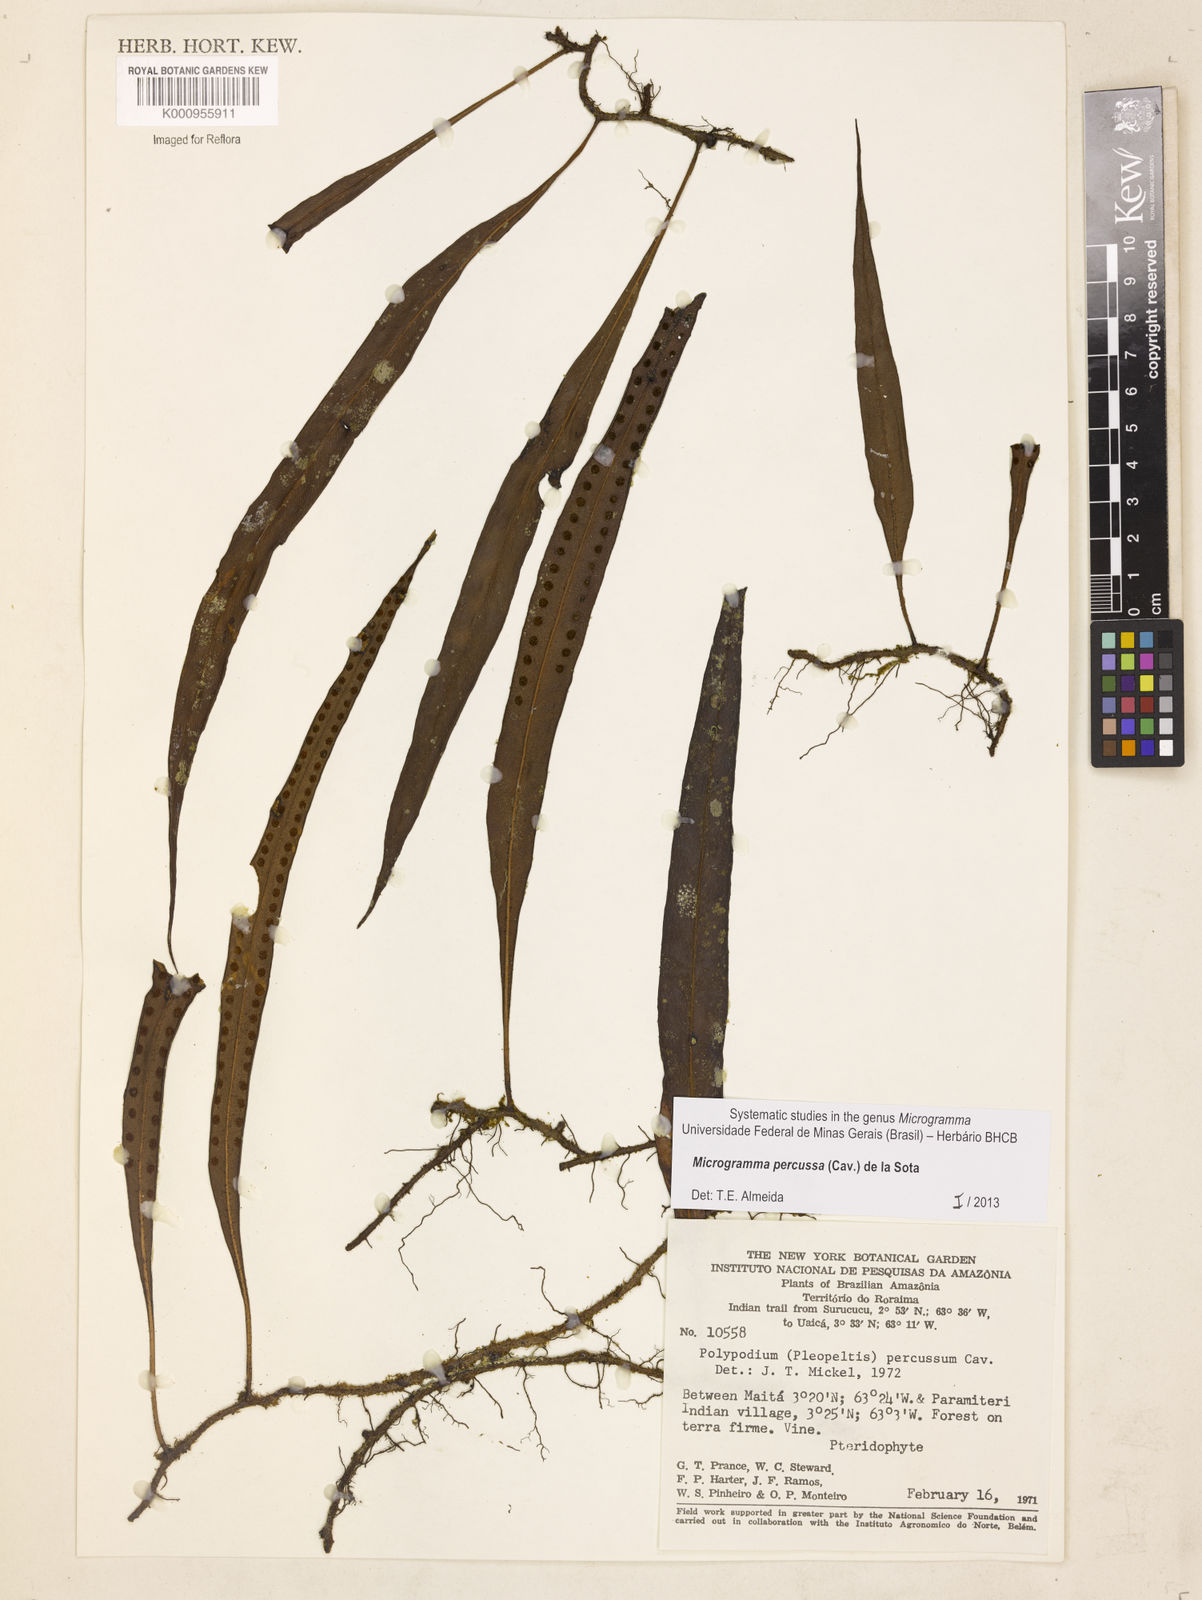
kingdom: Plantae
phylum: Tracheophyta
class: Polypodiopsida
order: Polypodiales
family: Polypodiaceae
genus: Microgramma
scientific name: Microgramma percussa
